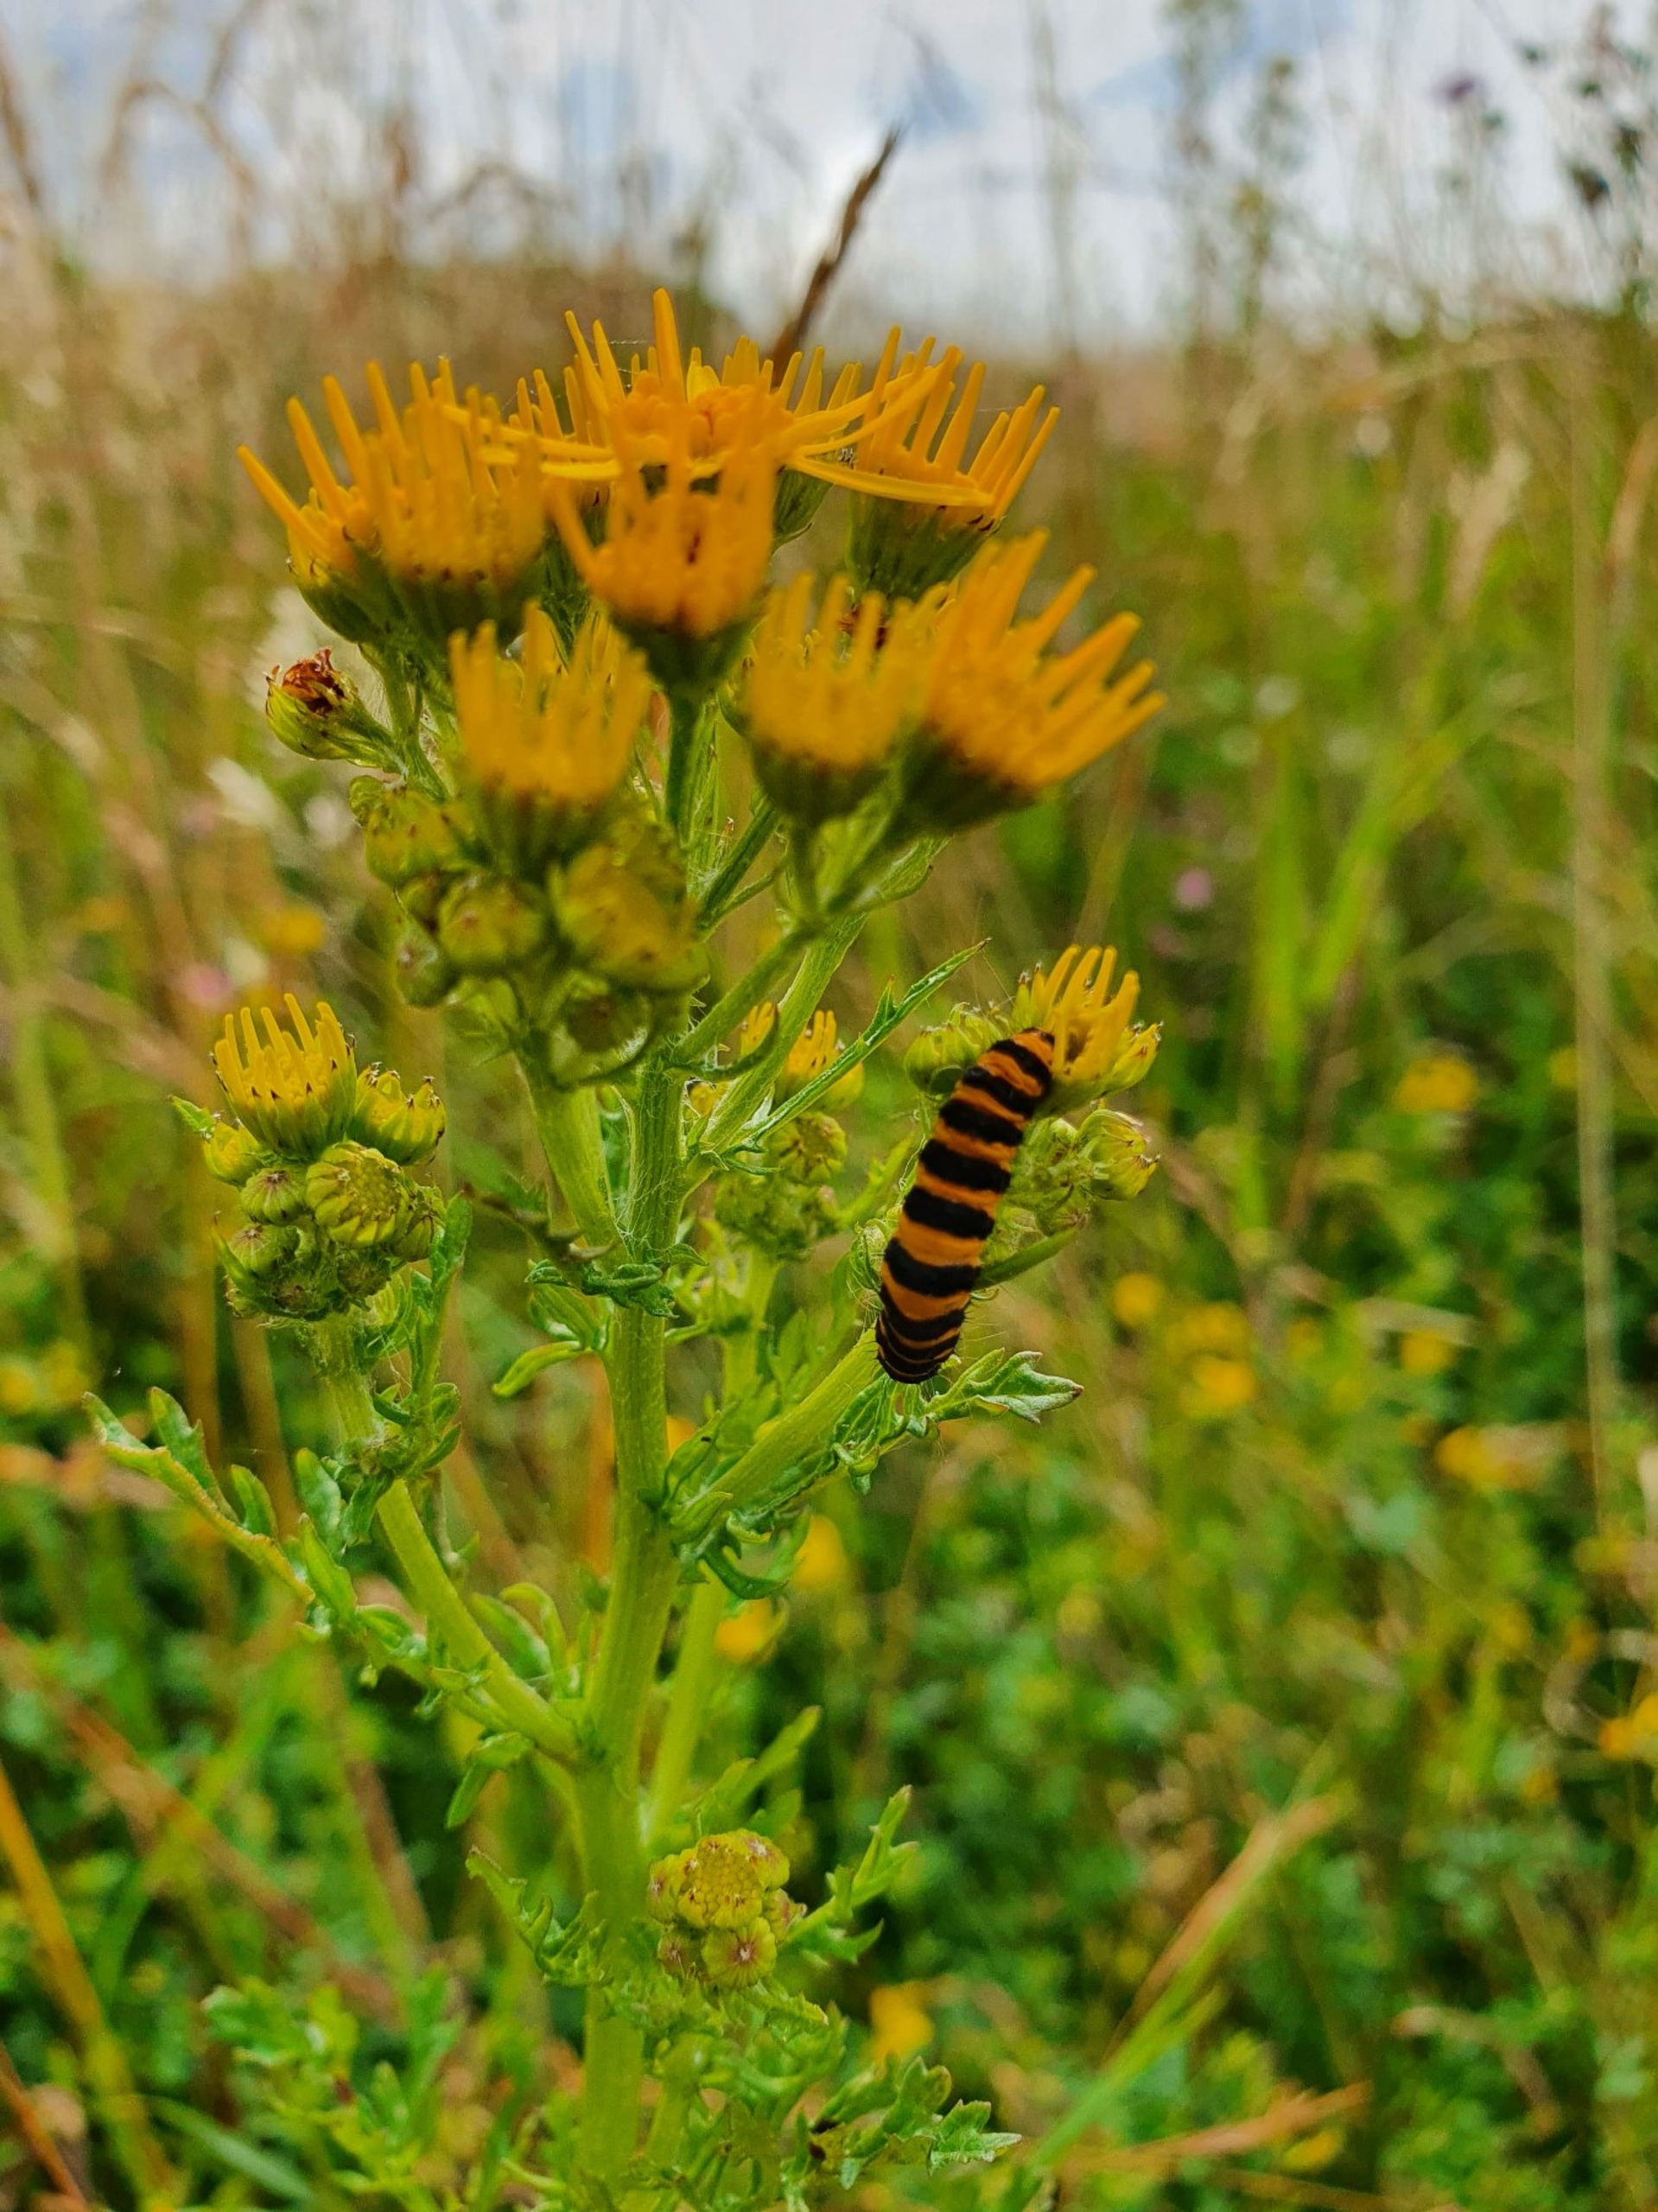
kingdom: Animalia
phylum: Arthropoda
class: Insecta
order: Lepidoptera
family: Erebidae
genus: Tyria
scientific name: Tyria jacobaeae
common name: Blodplet
